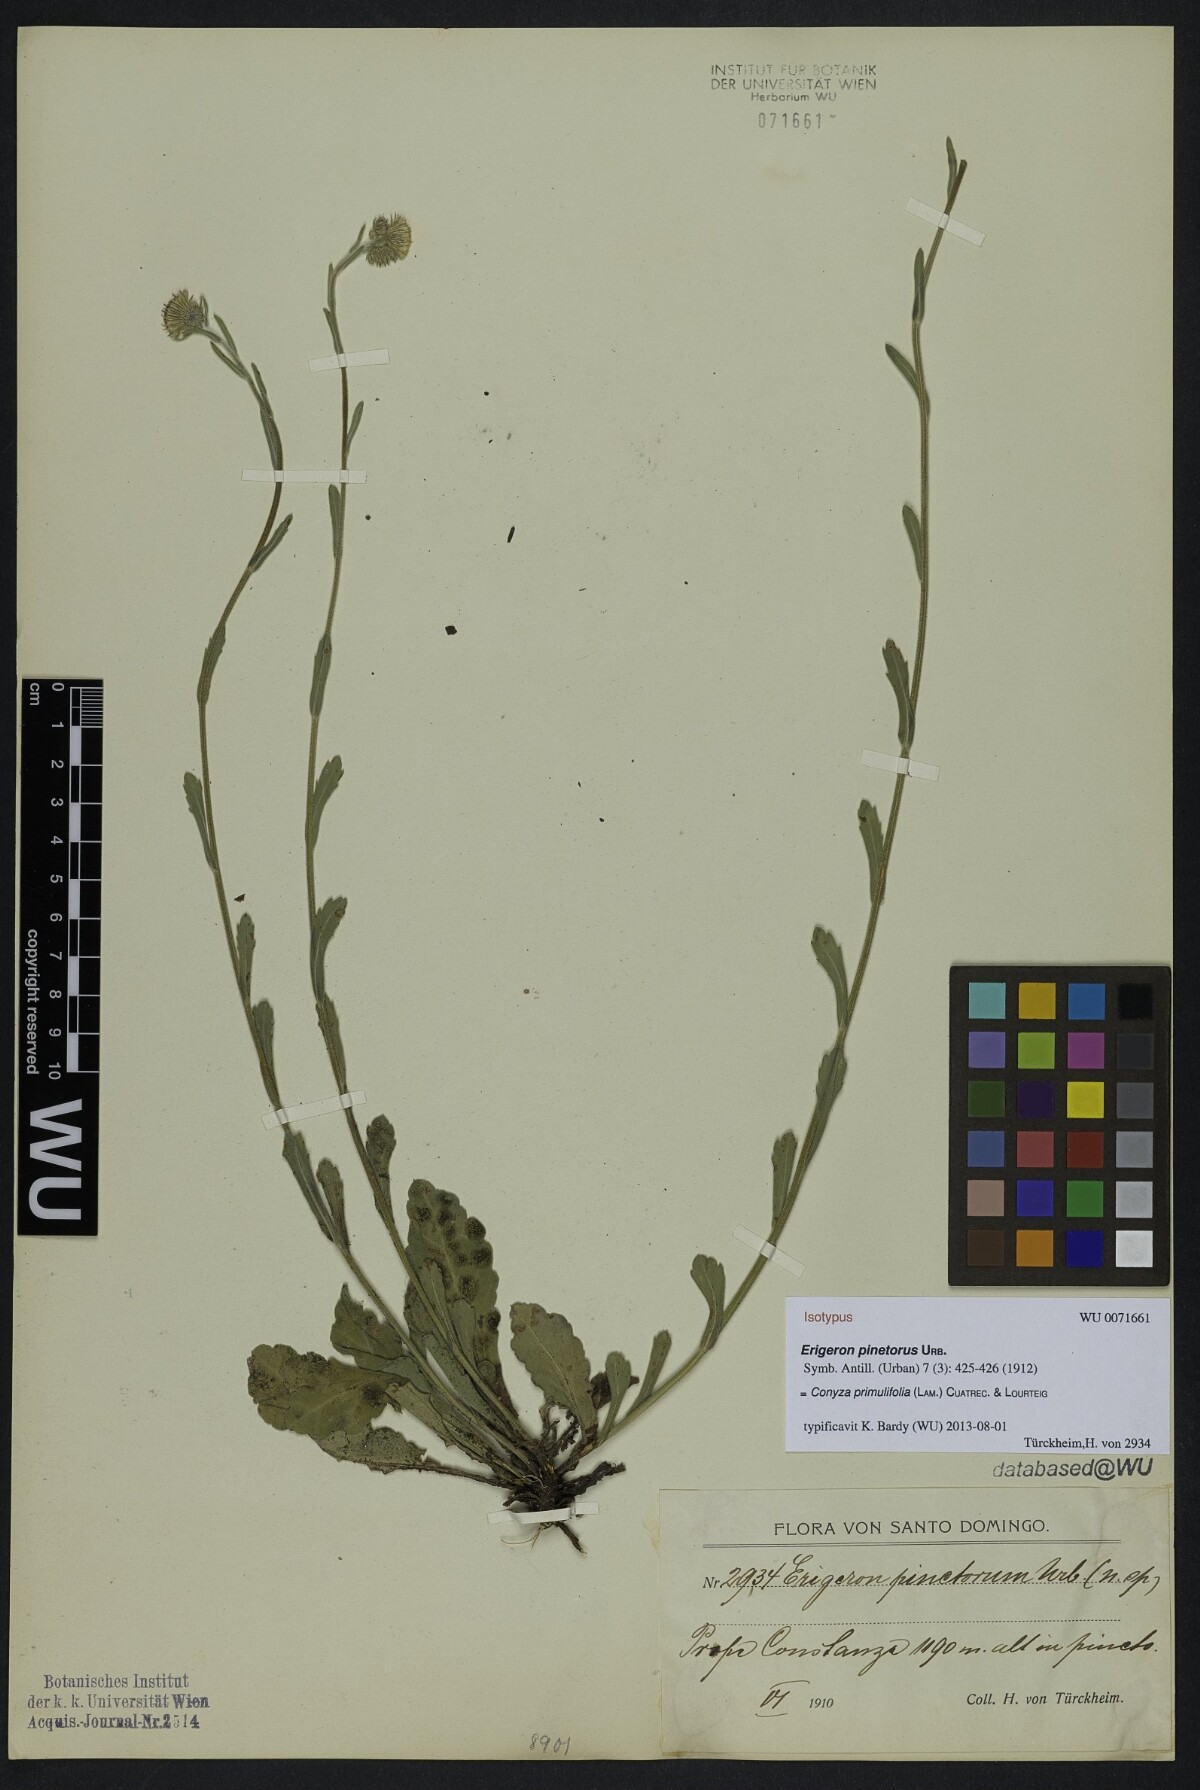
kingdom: Plantae
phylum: Tracheophyta
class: Magnoliopsida
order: Asterales
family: Asteraceae
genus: Erigeron
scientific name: Erigeron primulifolius
